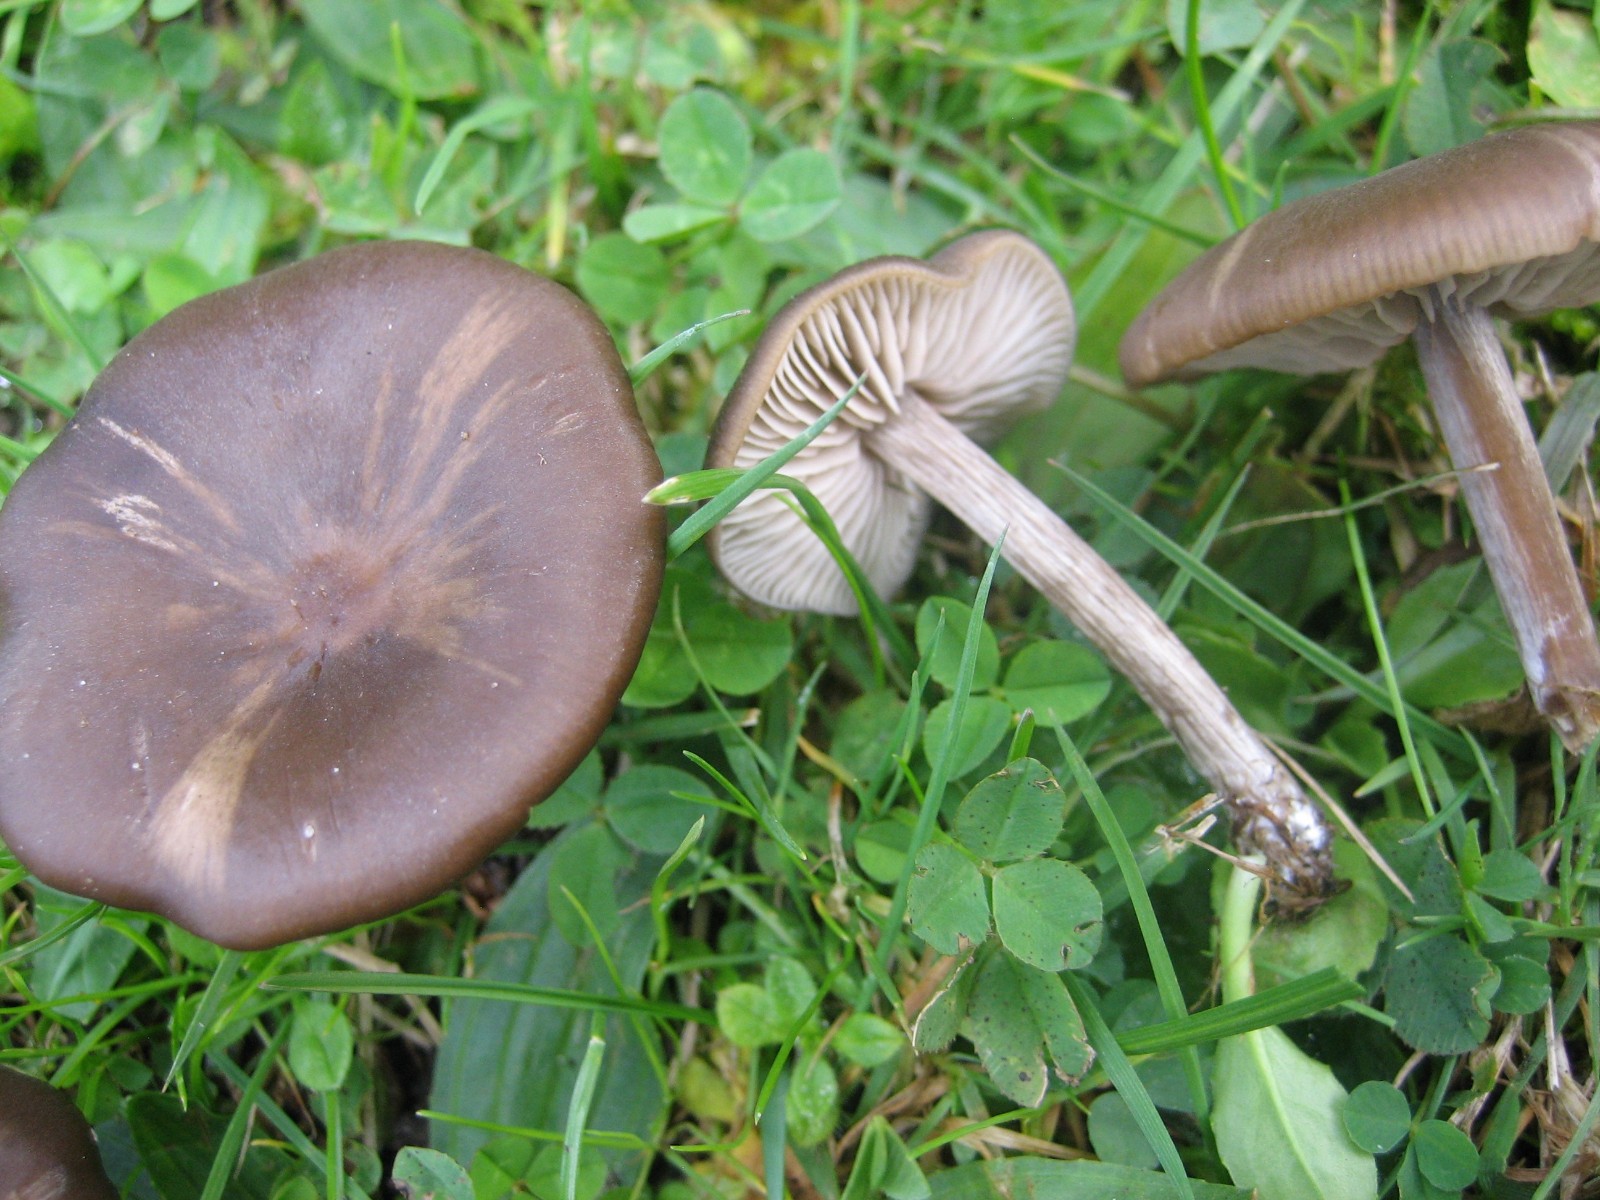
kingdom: Fungi
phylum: Basidiomycota
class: Agaricomycetes
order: Agaricales
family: Entolomataceae
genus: Entoloma
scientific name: Entoloma
